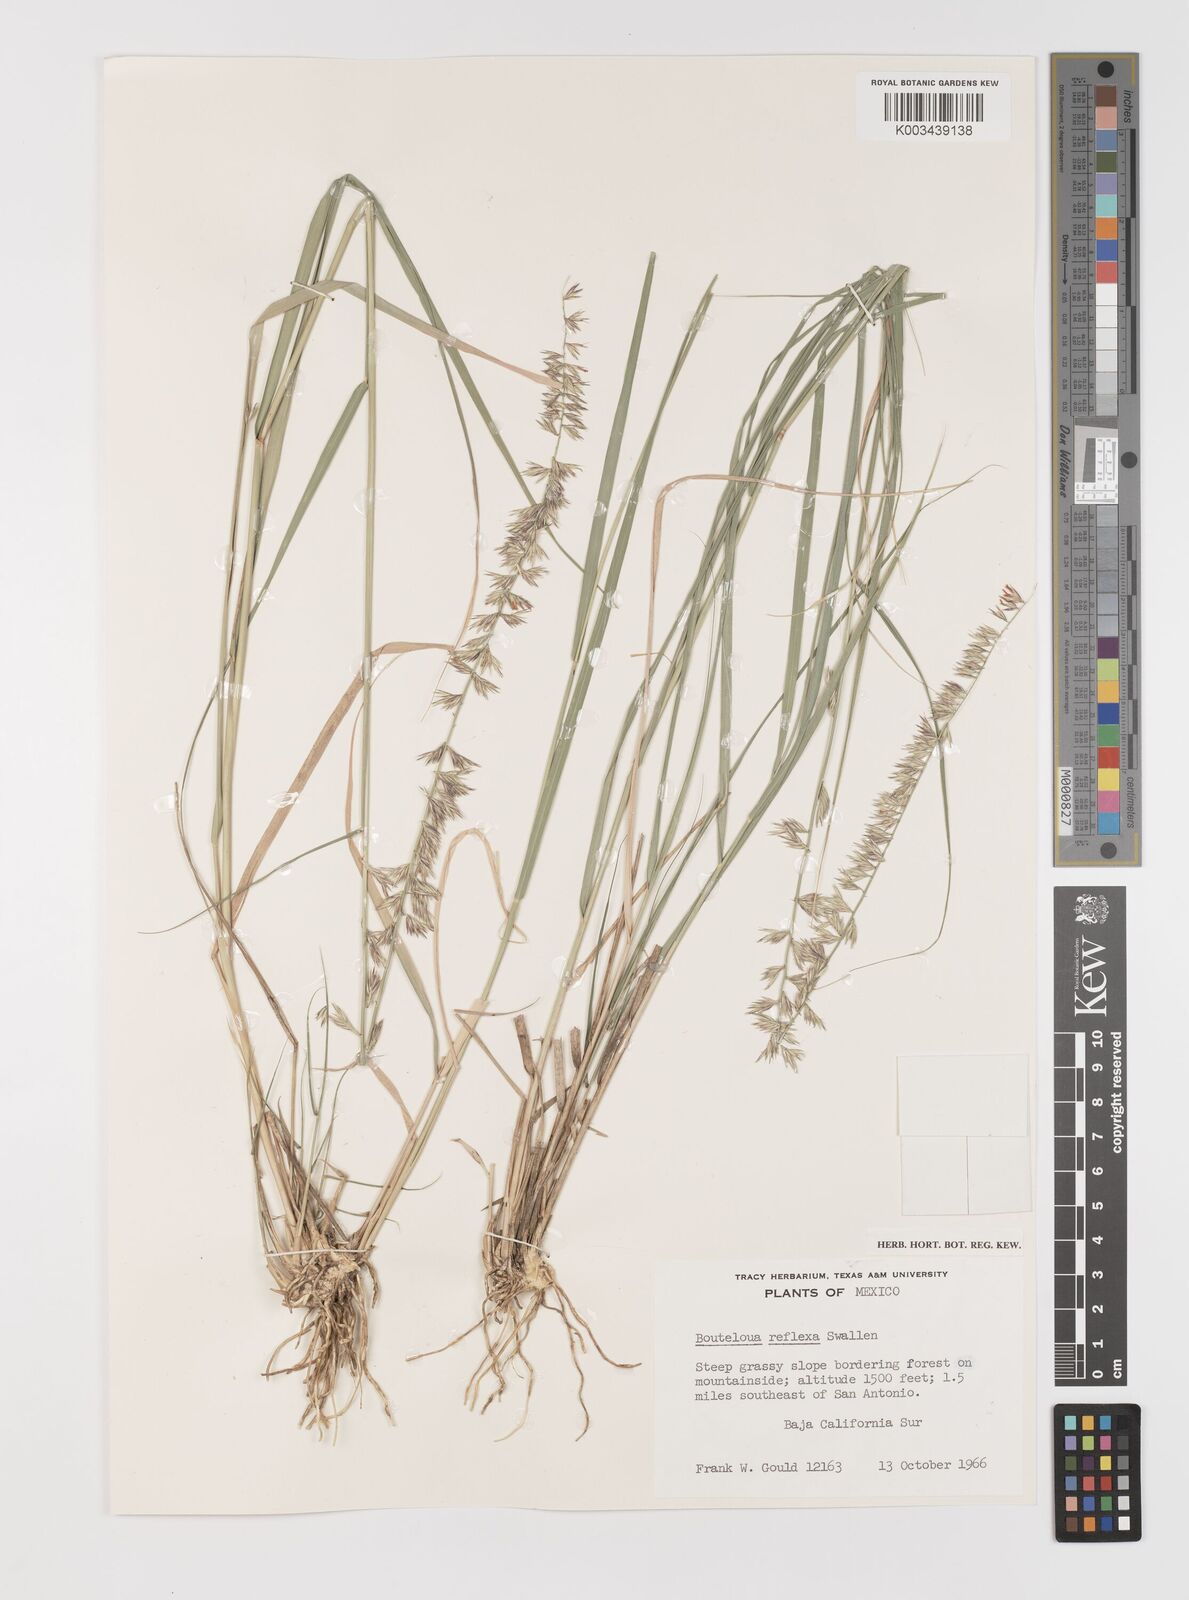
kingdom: Plantae
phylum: Tracheophyta
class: Liliopsida
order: Poales
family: Poaceae
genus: Bouteloua
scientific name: Bouteloua reflexa
